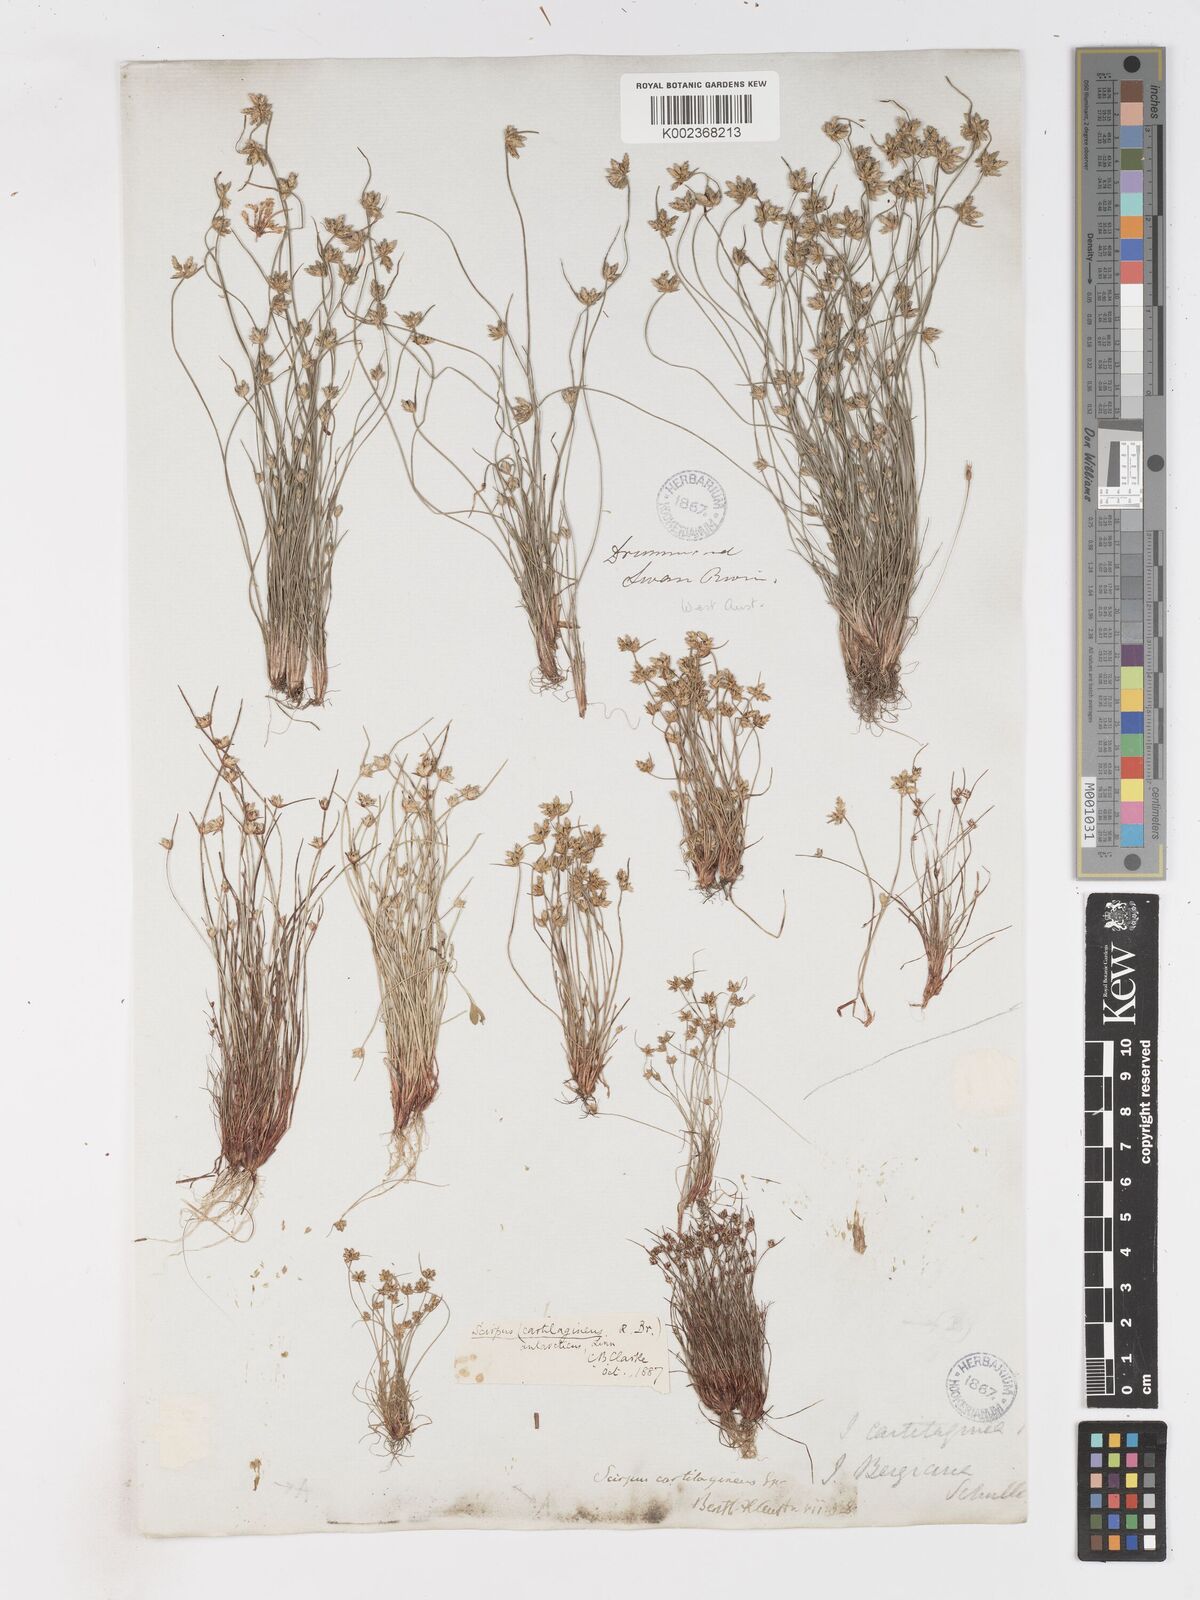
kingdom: Plantae
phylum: Tracheophyta
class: Liliopsida
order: Poales
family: Cyperaceae
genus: Isolepis
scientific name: Isolepis marginata
